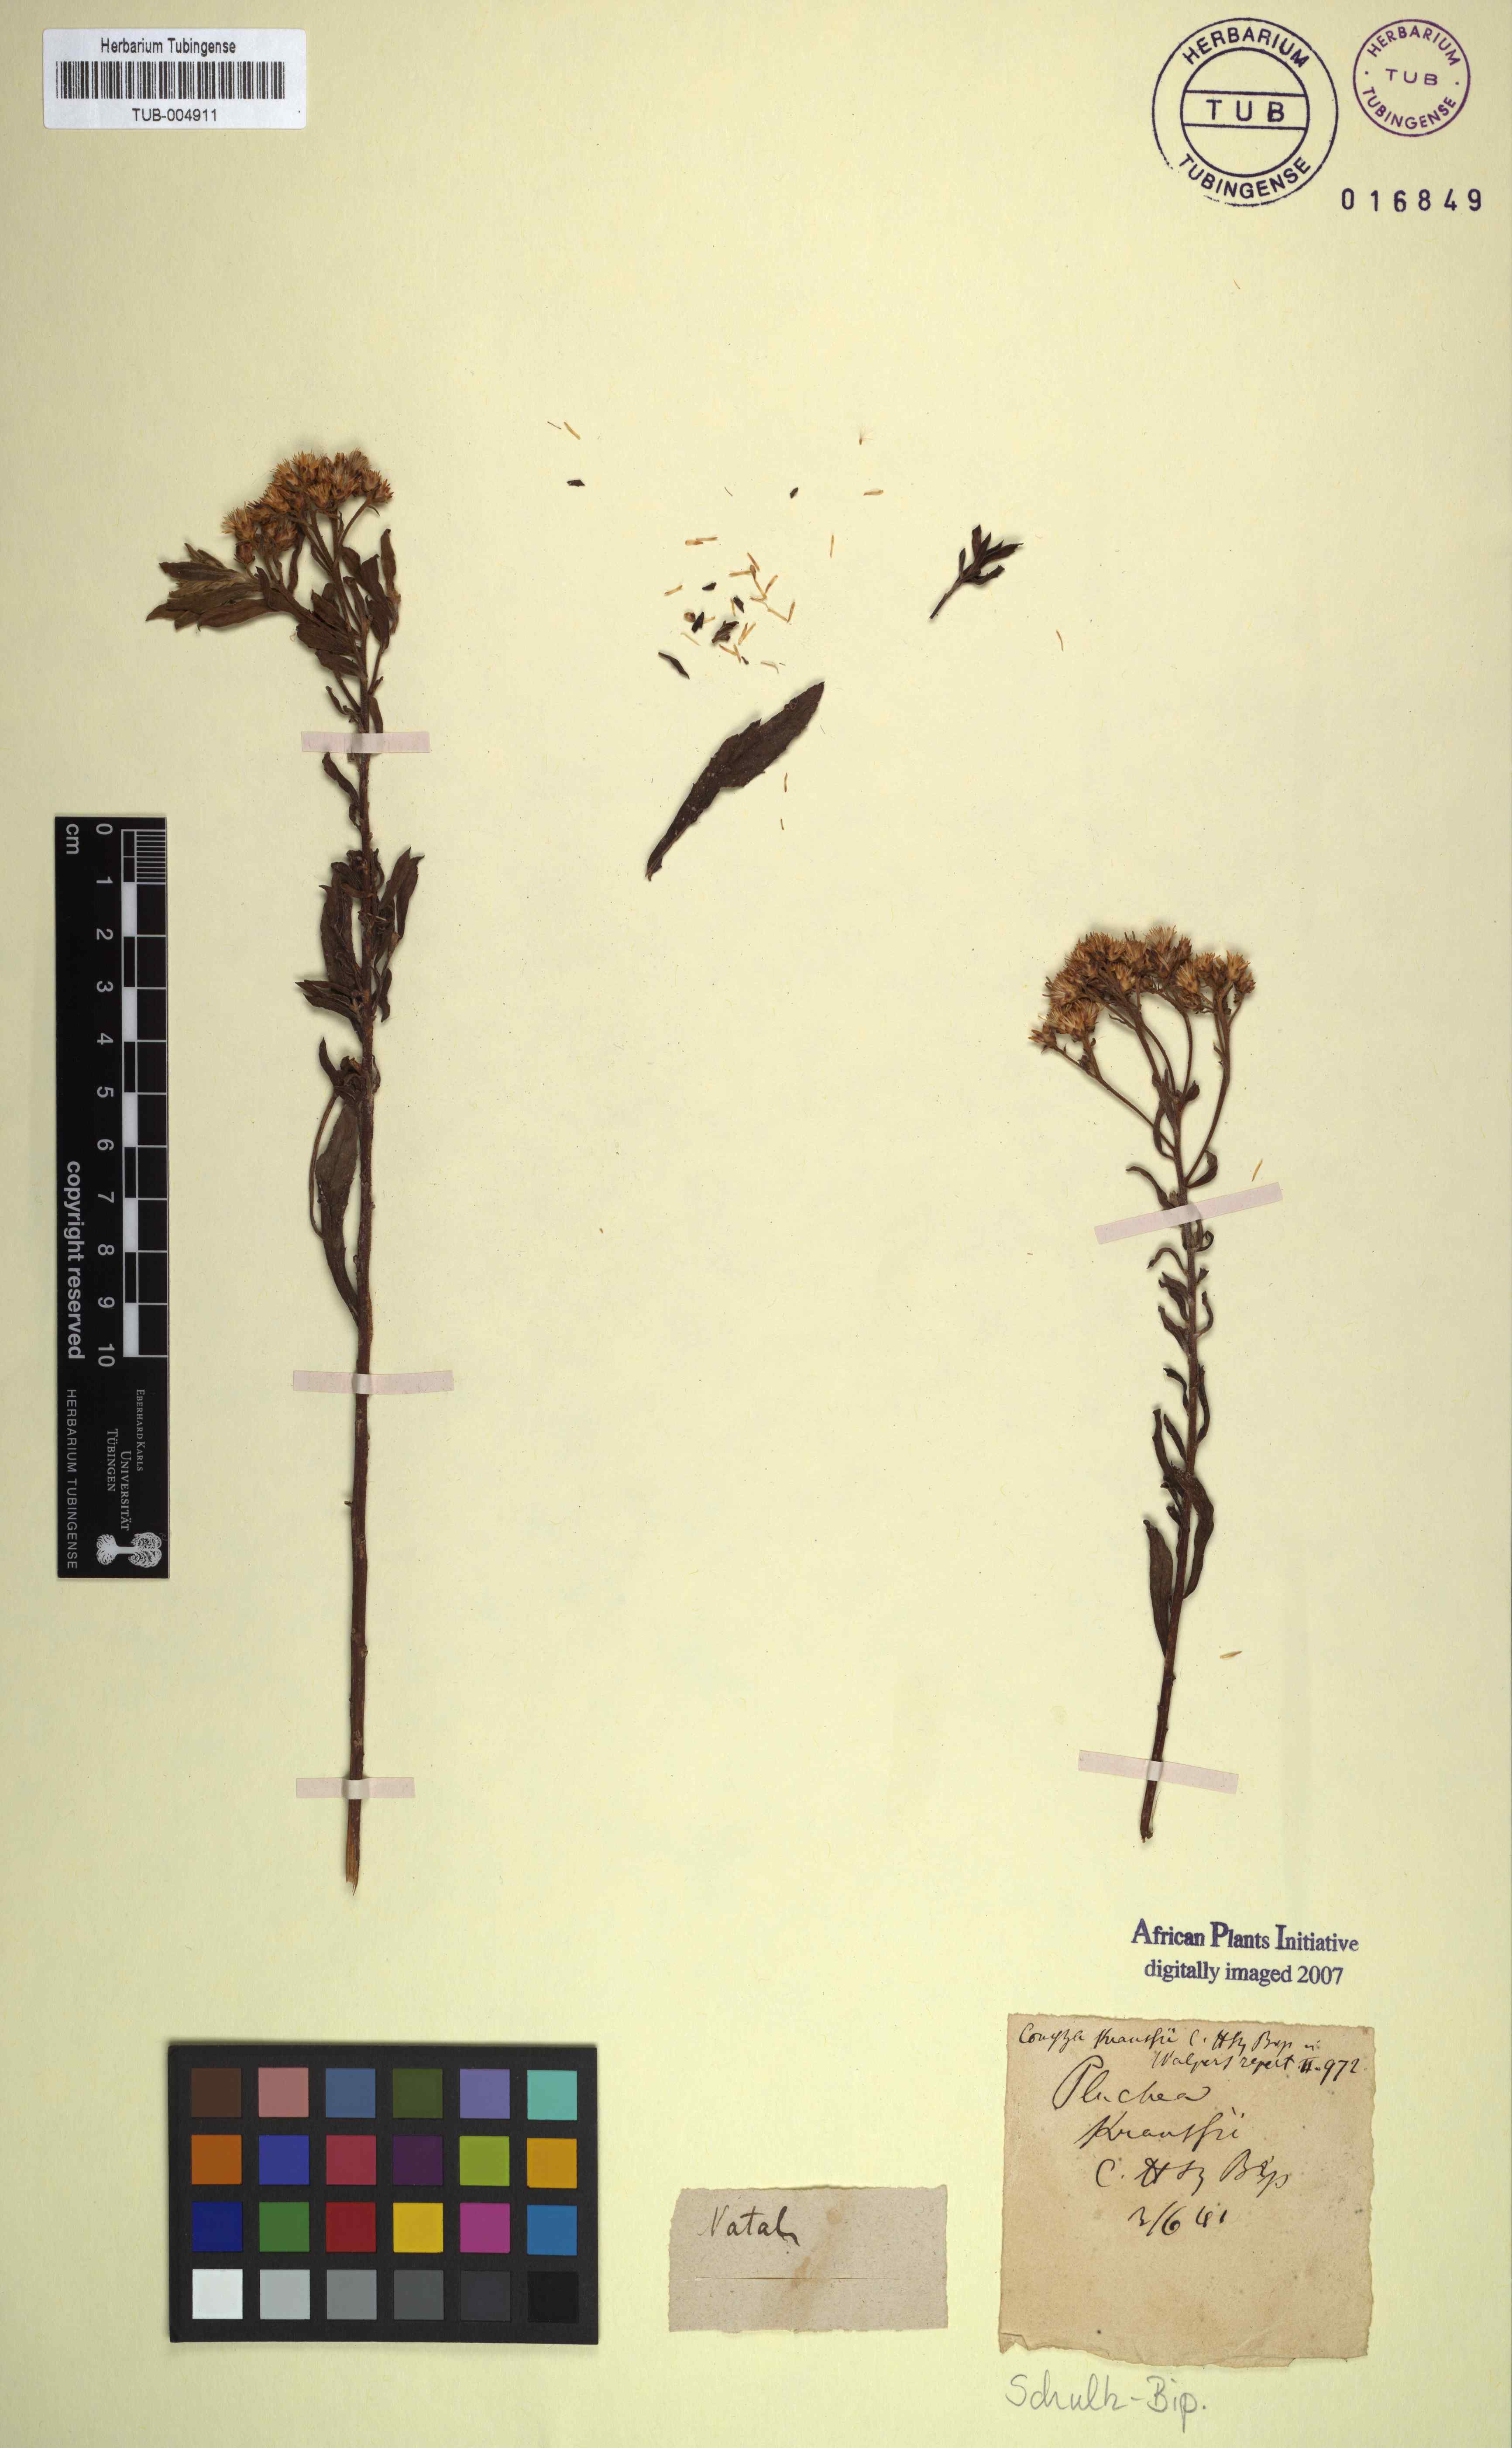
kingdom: Plantae
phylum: Tracheophyta
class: Magnoliopsida
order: Asterales
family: Asteraceae
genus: Conyza
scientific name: Conyza kraussii
